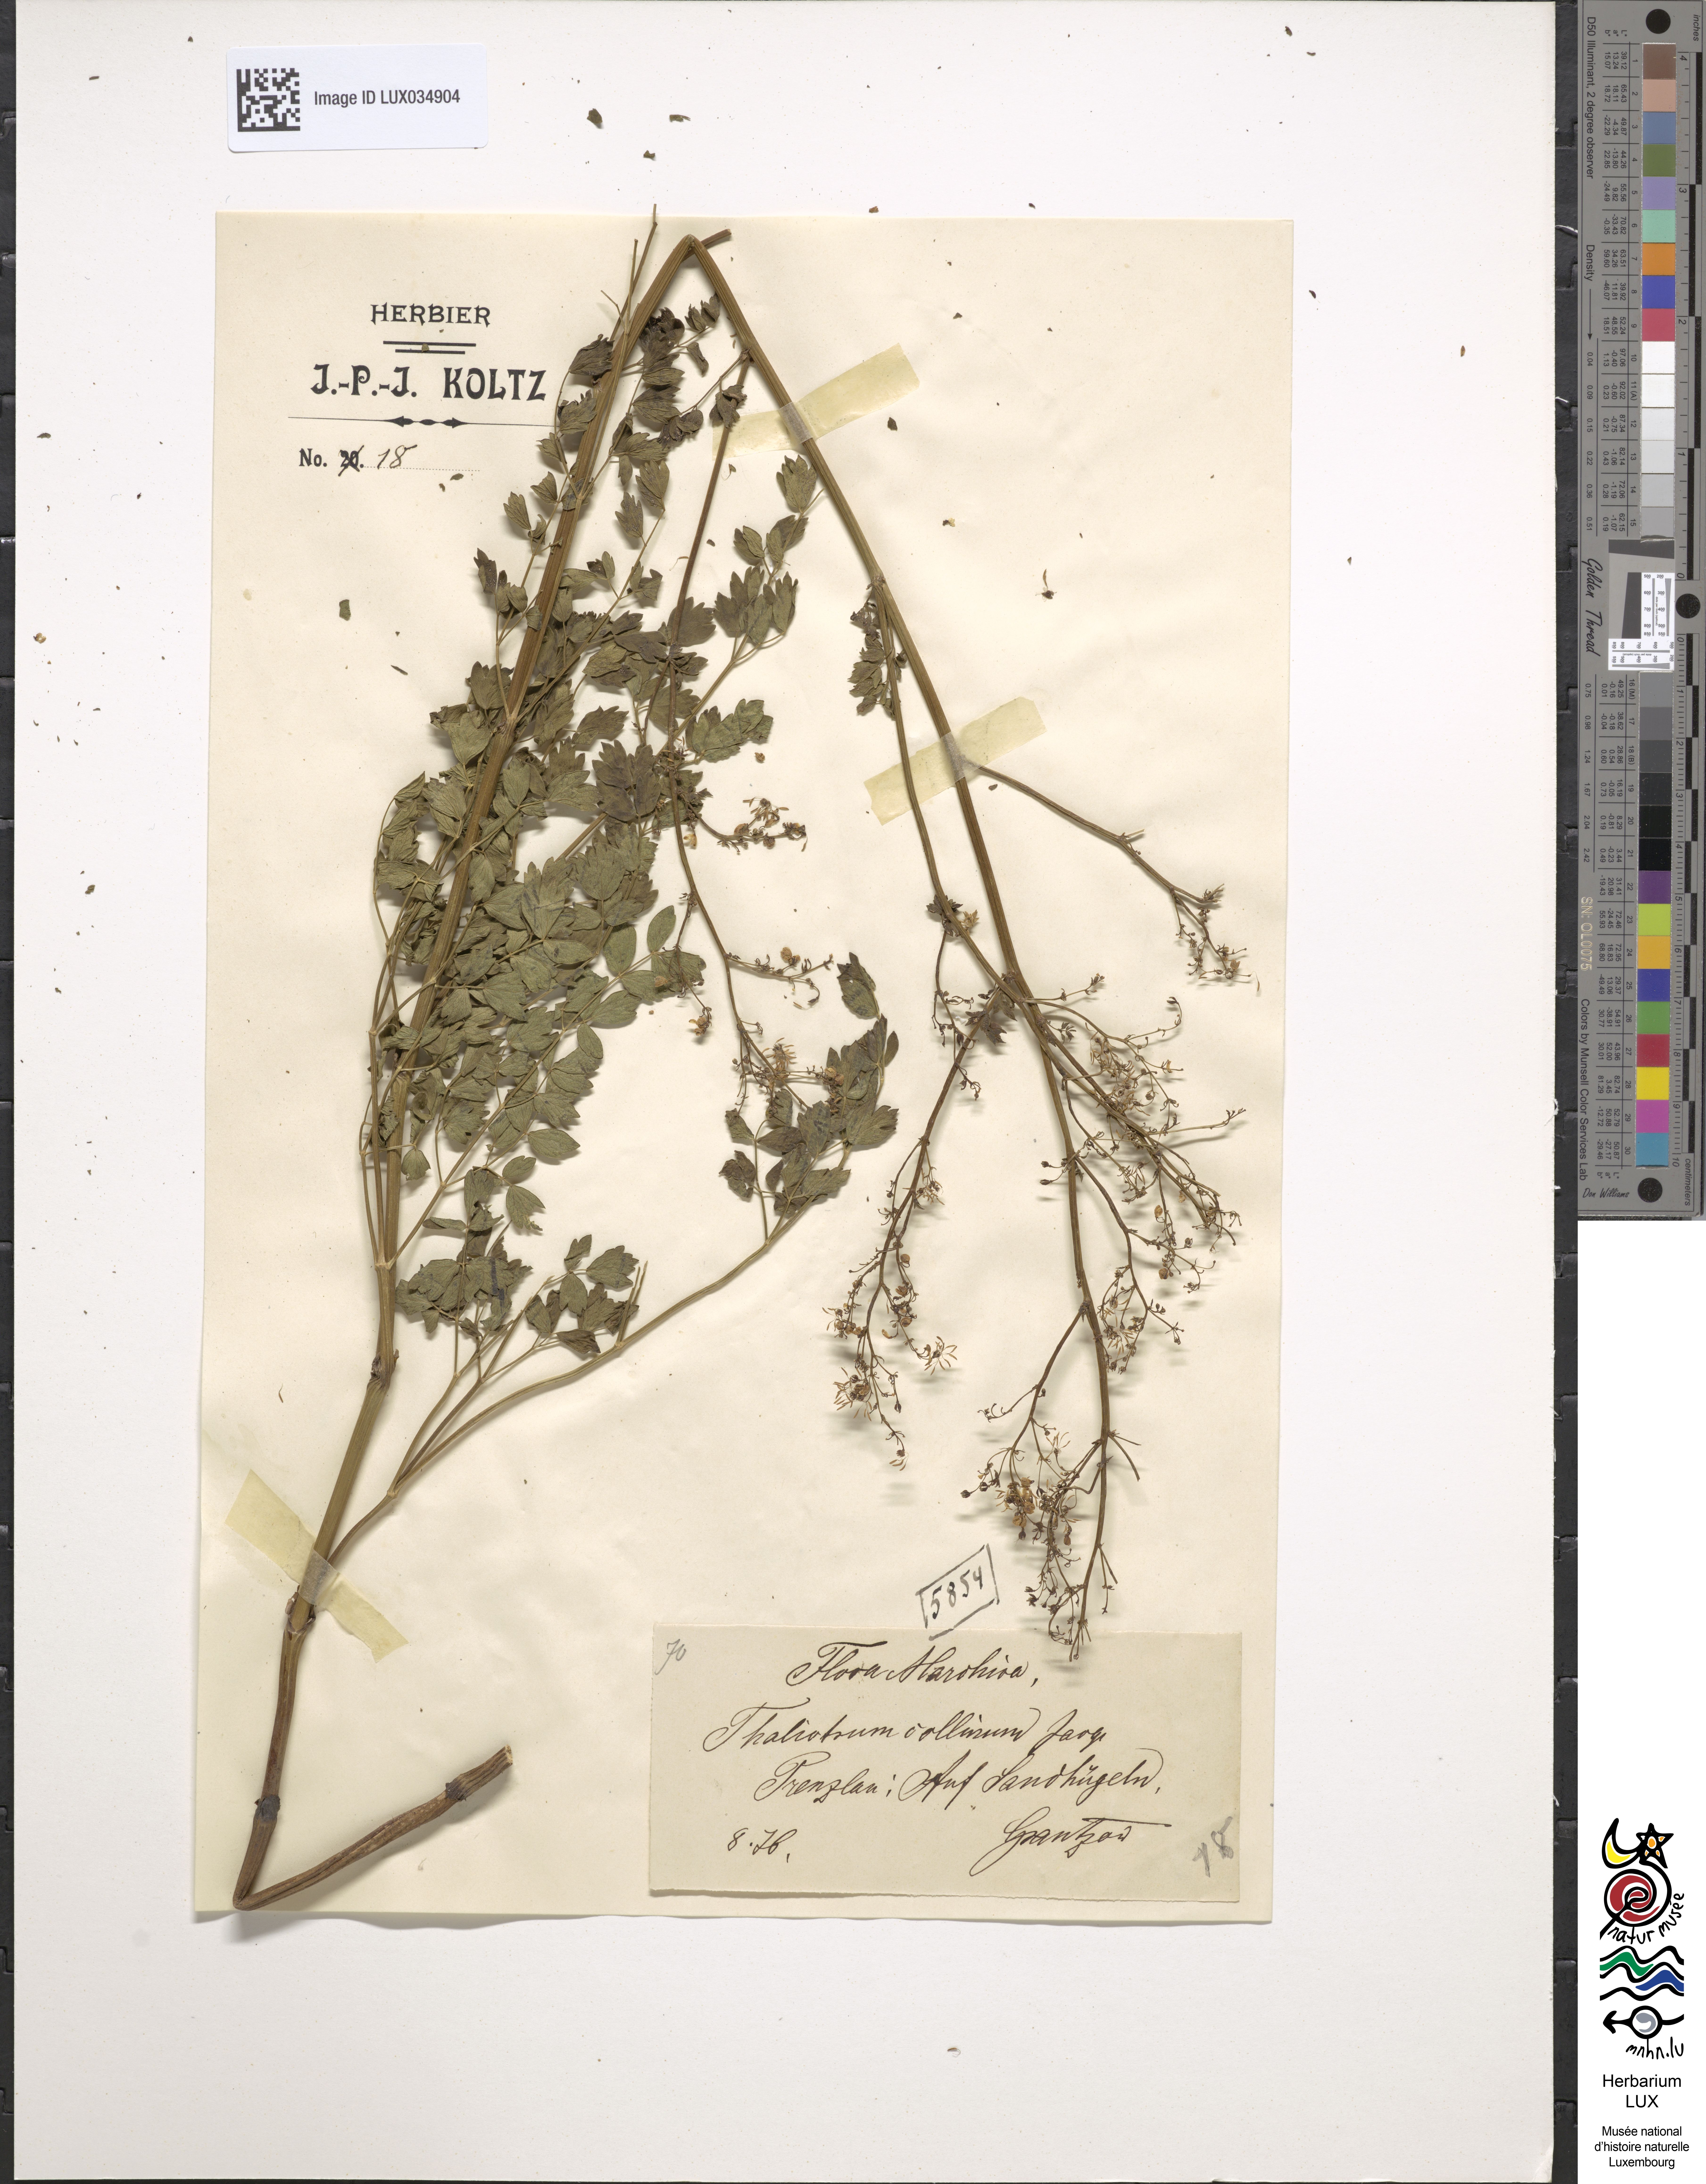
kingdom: Plantae
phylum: Tracheophyta
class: Magnoliopsida
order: Ranunculales
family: Ranunculaceae
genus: Thalictrum
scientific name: Thalictrum minus
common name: Lesser meadow-rue
